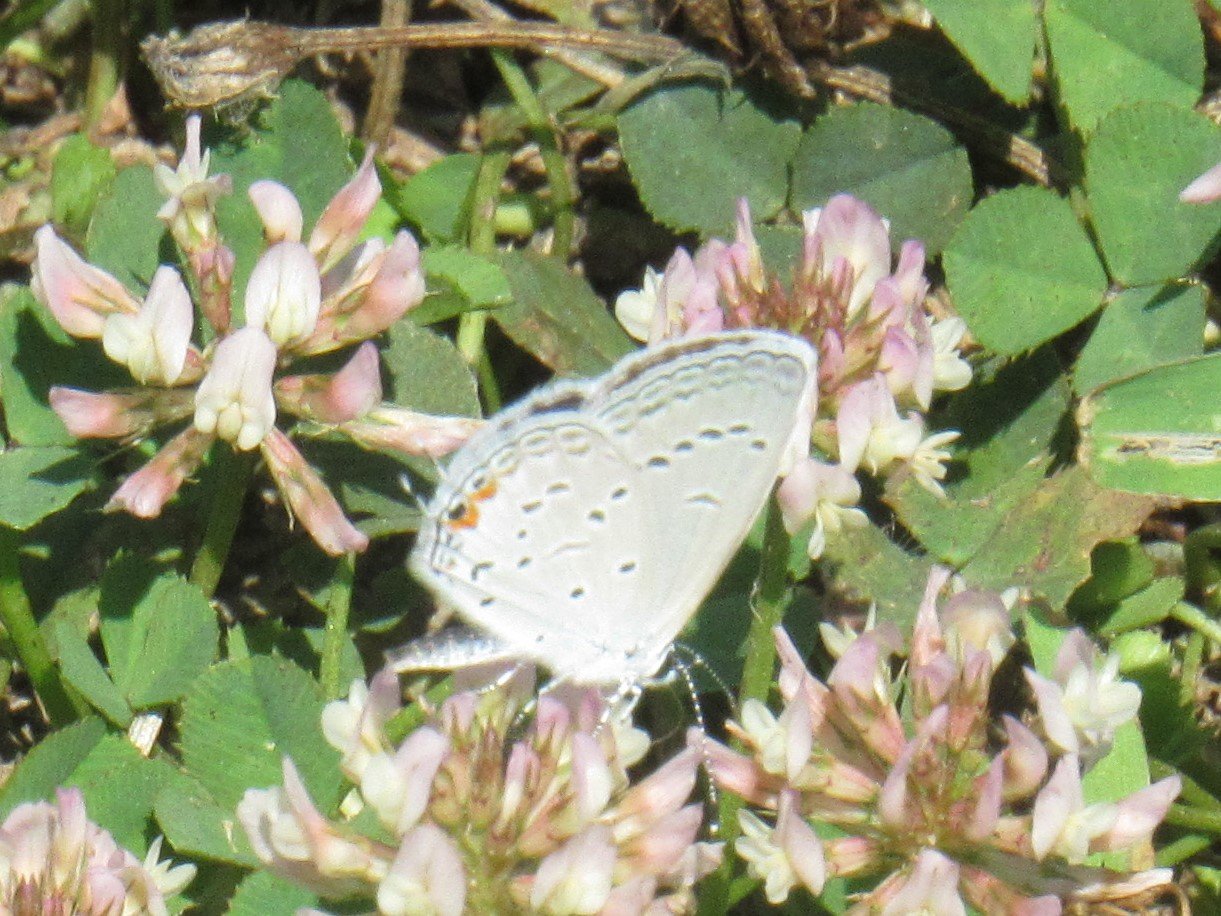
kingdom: Animalia
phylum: Arthropoda
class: Insecta
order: Lepidoptera
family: Lycaenidae
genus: Elkalyce
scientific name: Elkalyce comyntas
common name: Eastern Tailed-Blue
